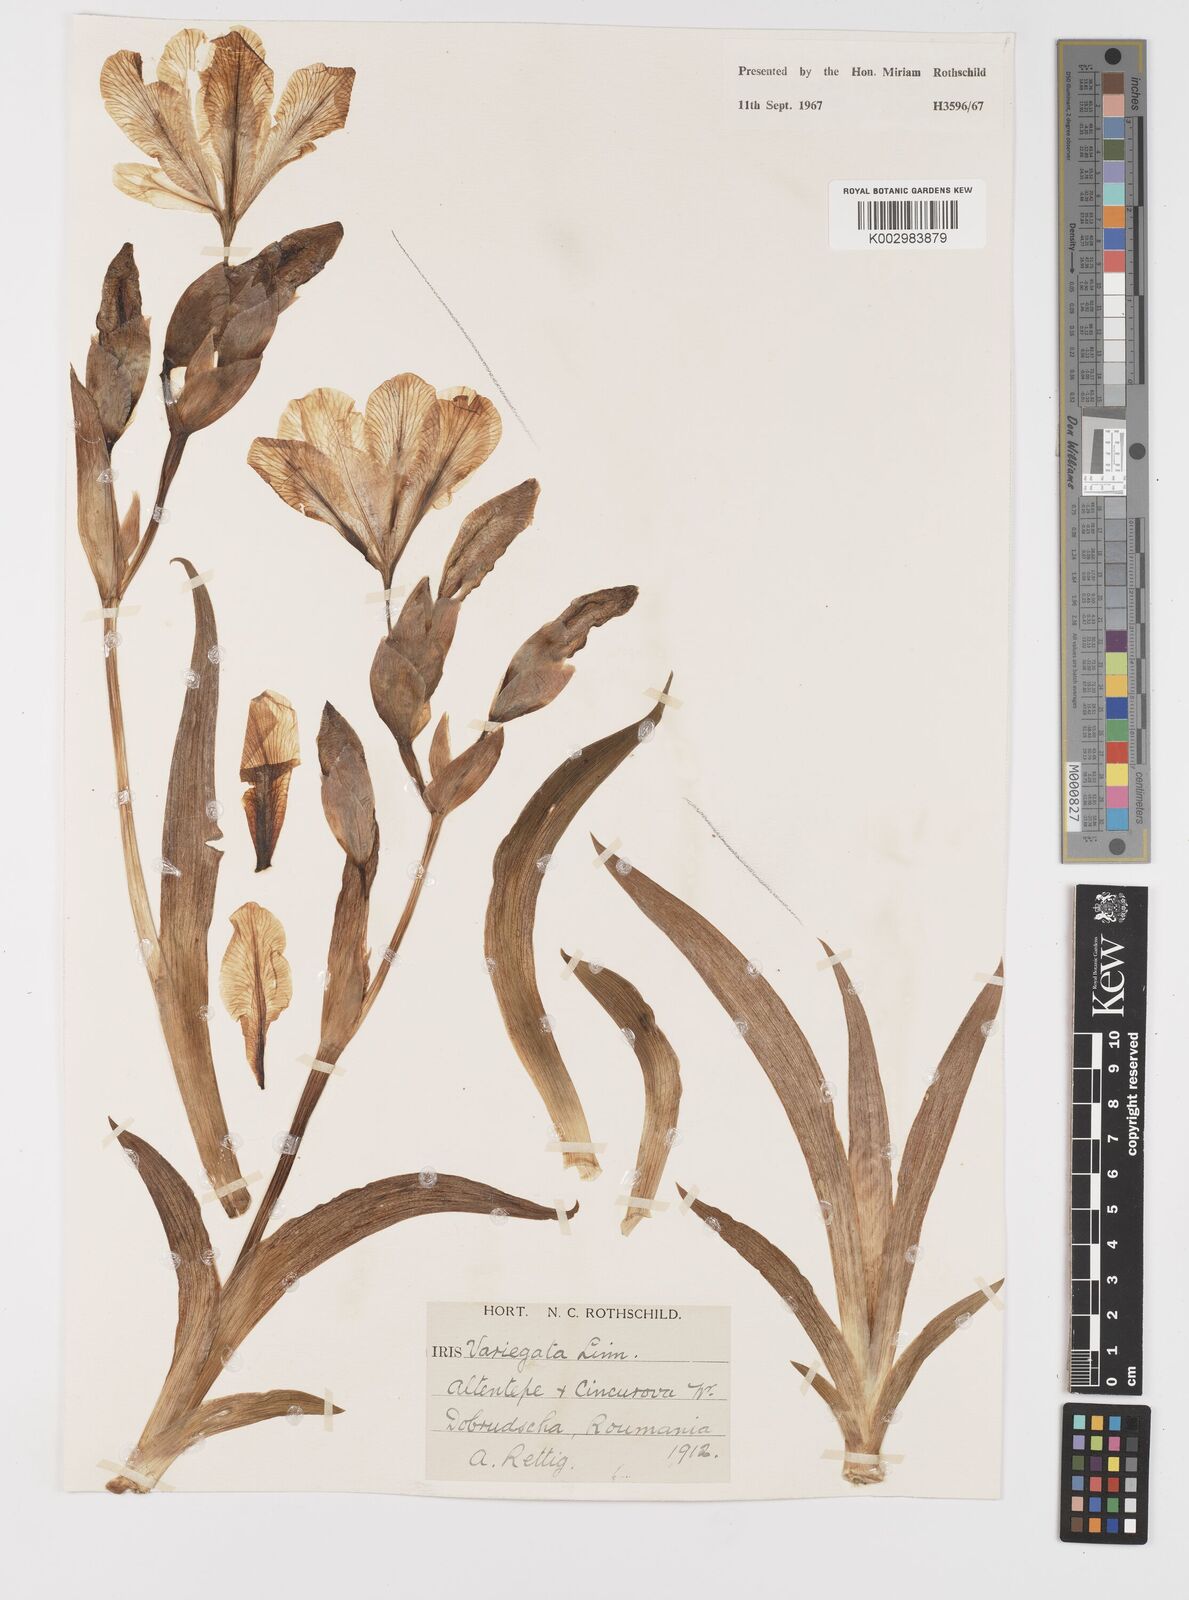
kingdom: Plantae
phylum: Tracheophyta
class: Liliopsida
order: Asparagales
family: Iridaceae
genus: Iris
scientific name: Iris variegata
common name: Hungarian iris
